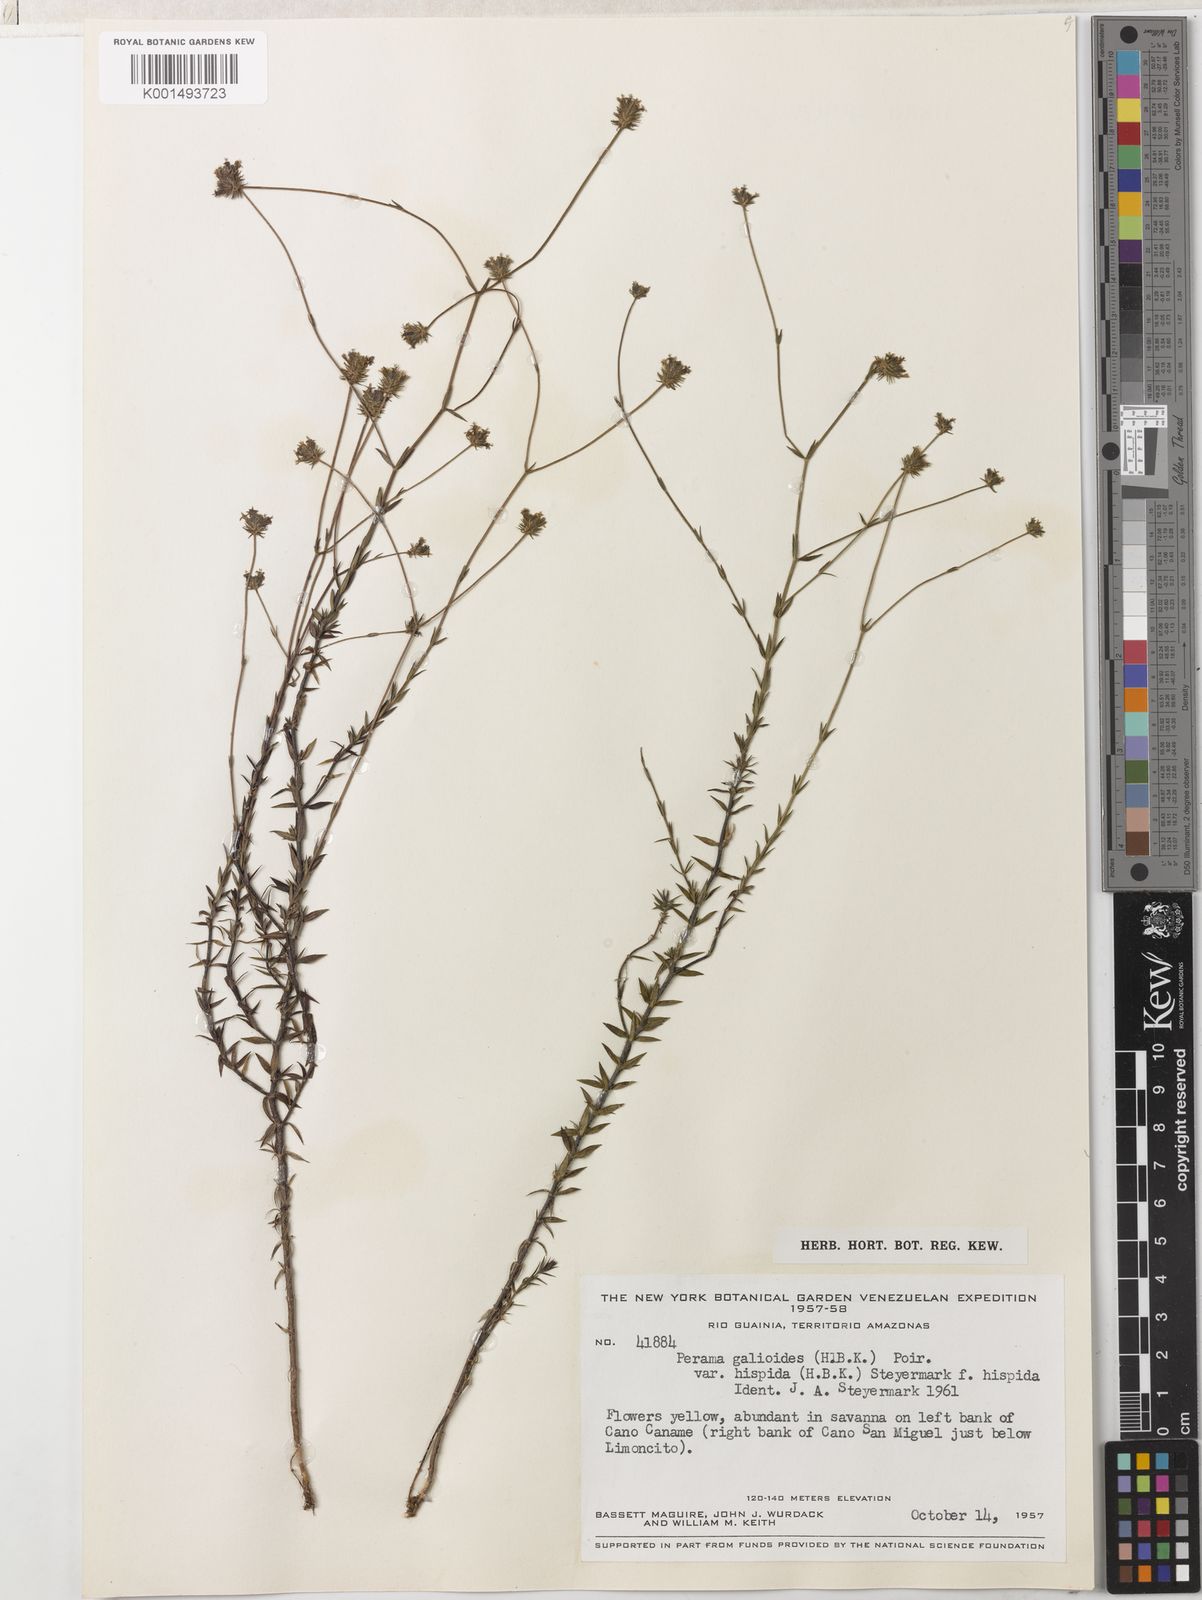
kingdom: Plantae
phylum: Tracheophyta
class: Magnoliopsida
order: Gentianales
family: Rubiaceae
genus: Perama
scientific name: Perama galioides
